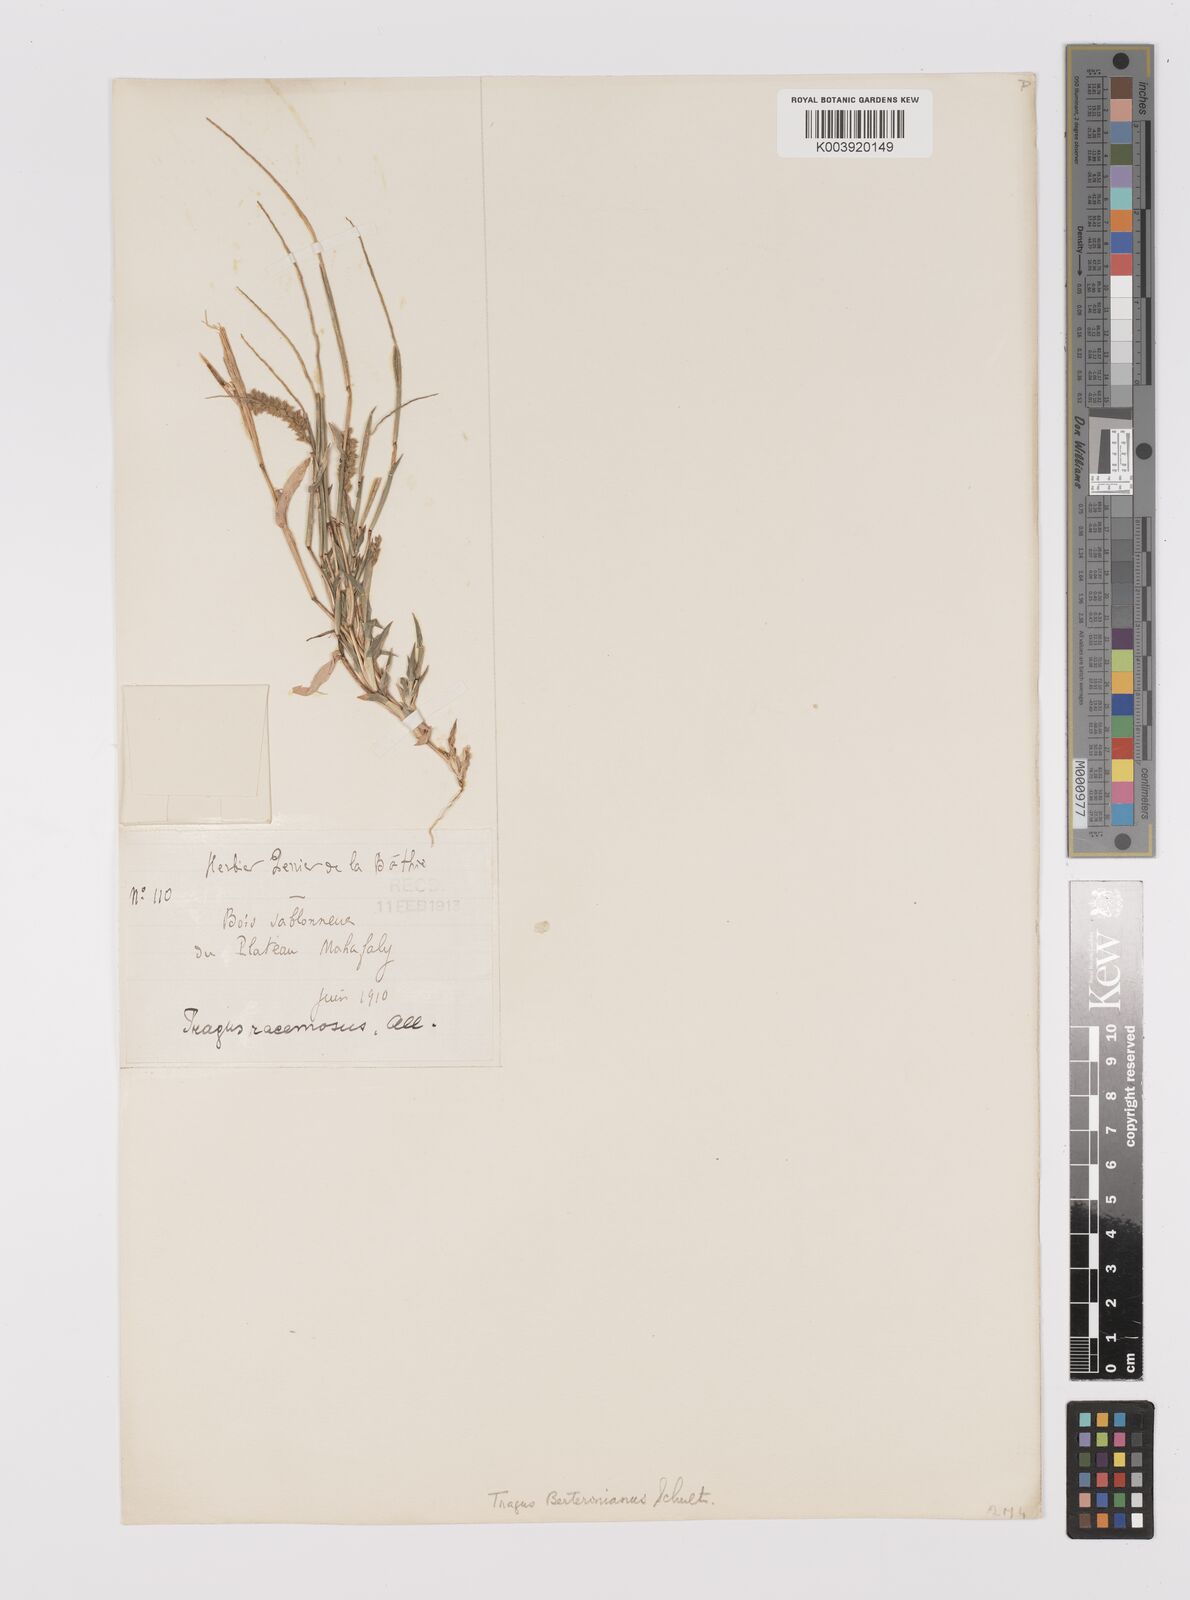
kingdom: Plantae
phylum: Tracheophyta
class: Liliopsida
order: Poales
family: Poaceae
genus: Tragus
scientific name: Tragus berteronianus
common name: African bur-grass
